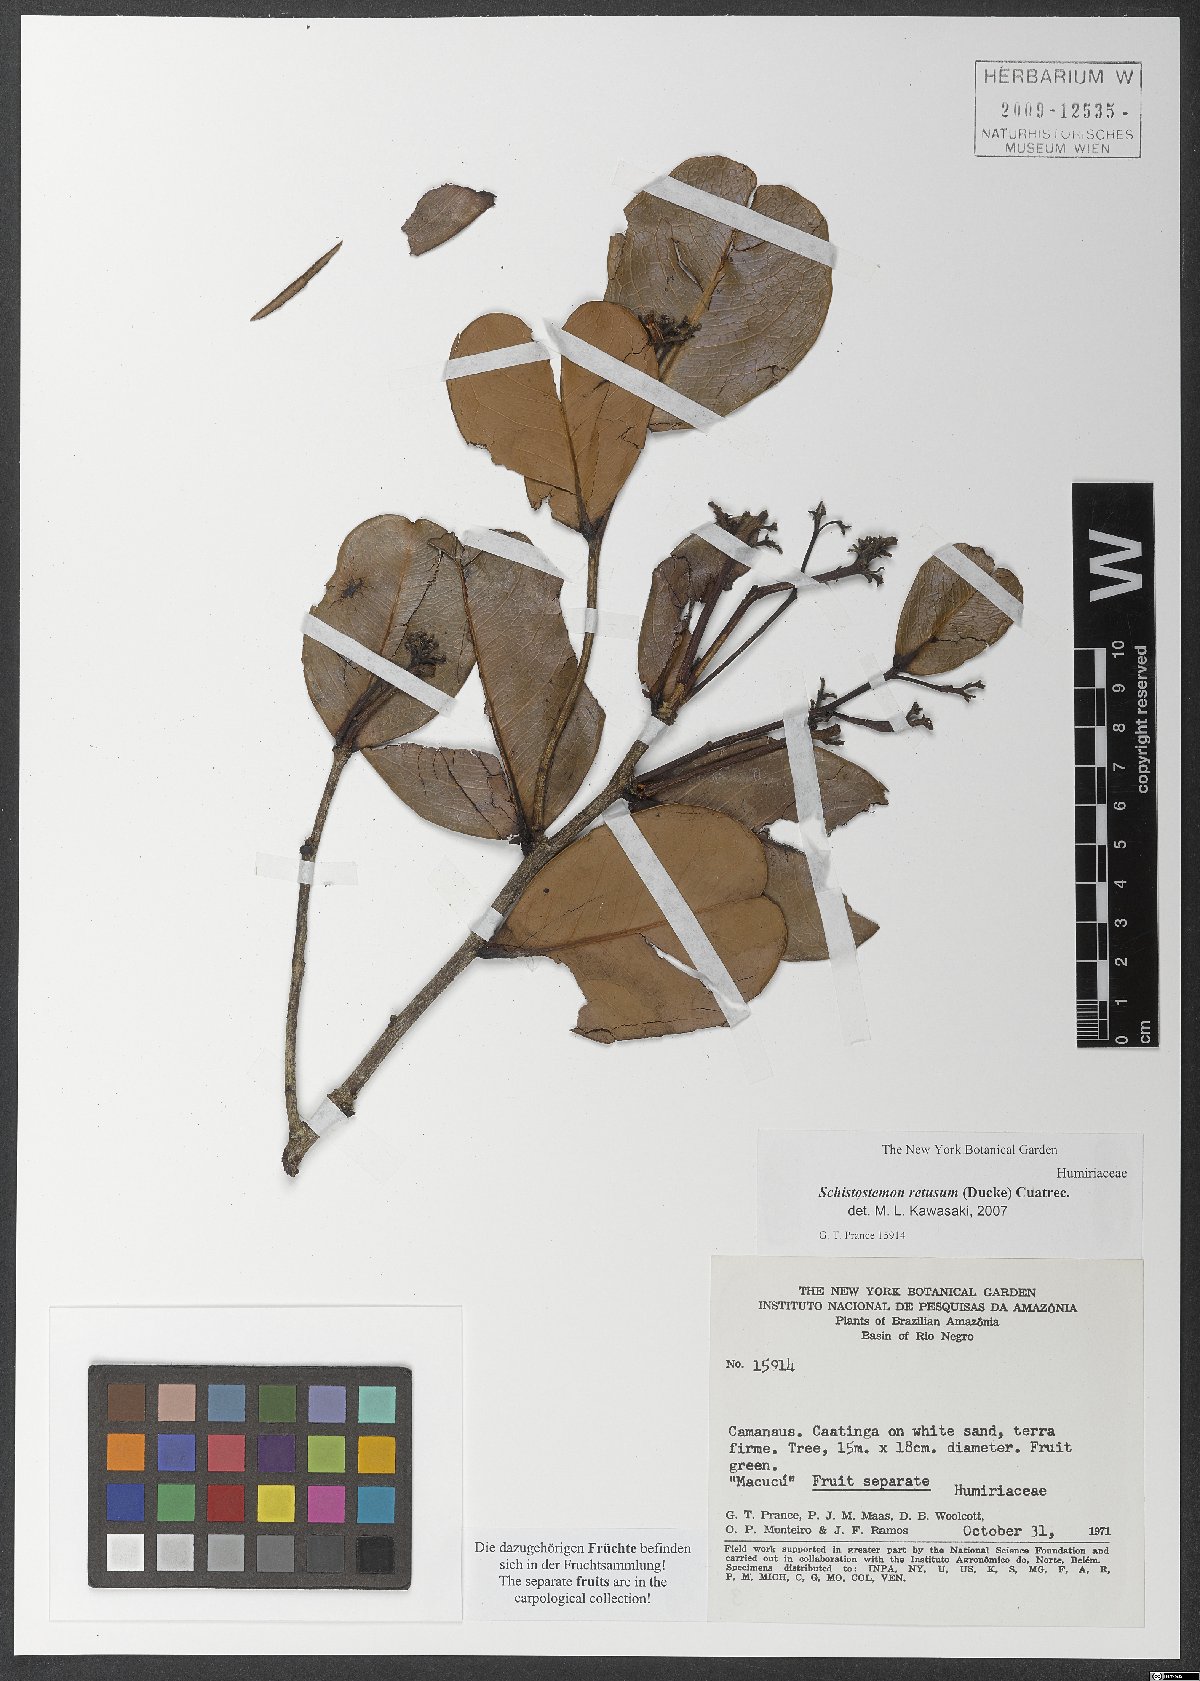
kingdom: Plantae
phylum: Tracheophyta
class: Magnoliopsida
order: Malpighiales
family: Humiriaceae
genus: Schistostemon
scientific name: Schistostemon retusum
